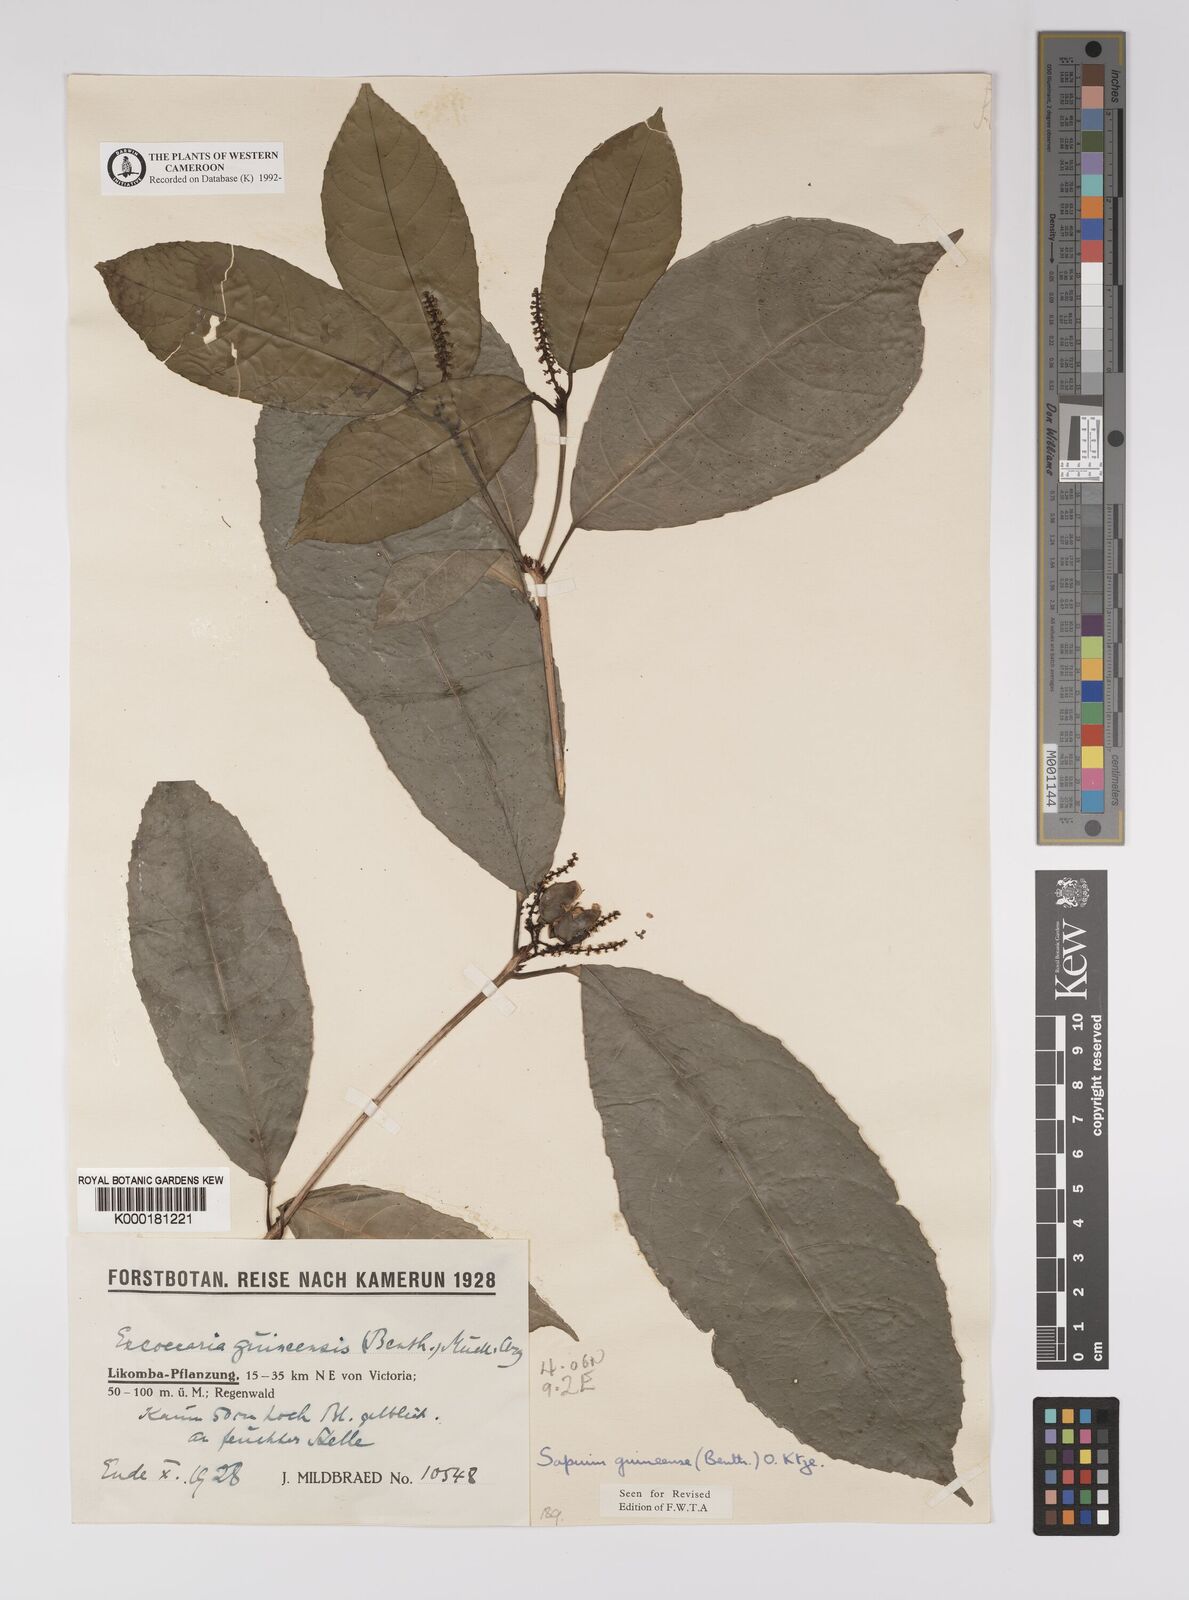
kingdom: Plantae
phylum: Tracheophyta
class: Magnoliopsida
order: Malpighiales
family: Euphorbiaceae
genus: Excoecaria
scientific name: Excoecaria
